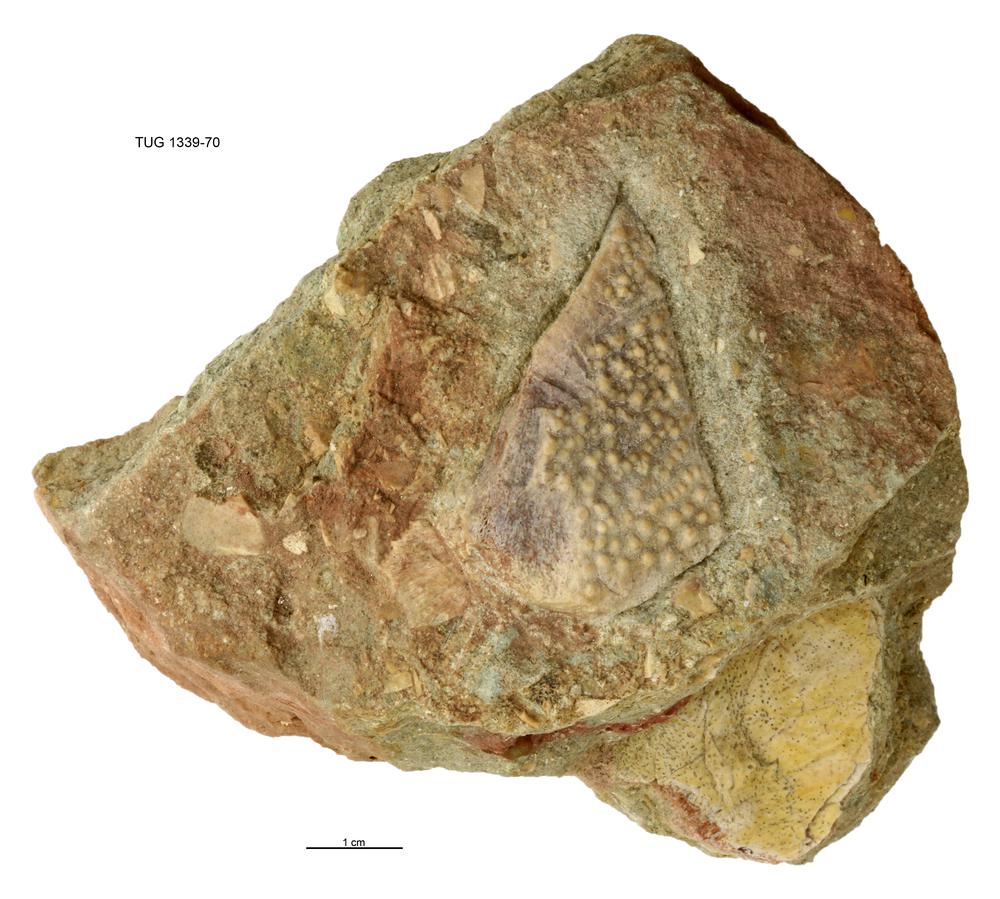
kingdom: Animalia
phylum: Chordata
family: Heterosteidae
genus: Heterosteus
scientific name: Heterosteus
